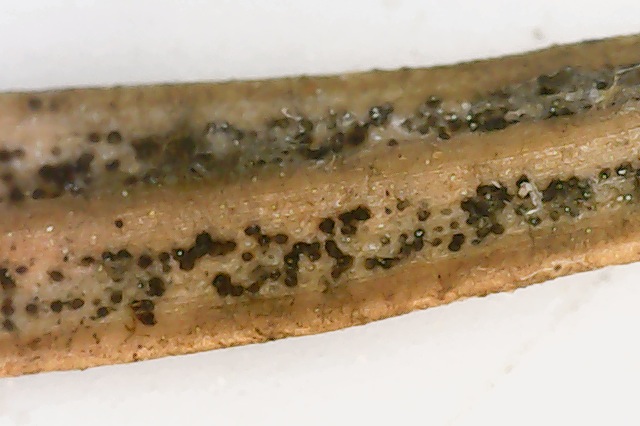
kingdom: Fungi
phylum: Ascomycota
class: Dothideomycetes
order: Venturiales
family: Venturiaceae
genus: Rhizosphaera
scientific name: Rhizosphaera oudemansii
